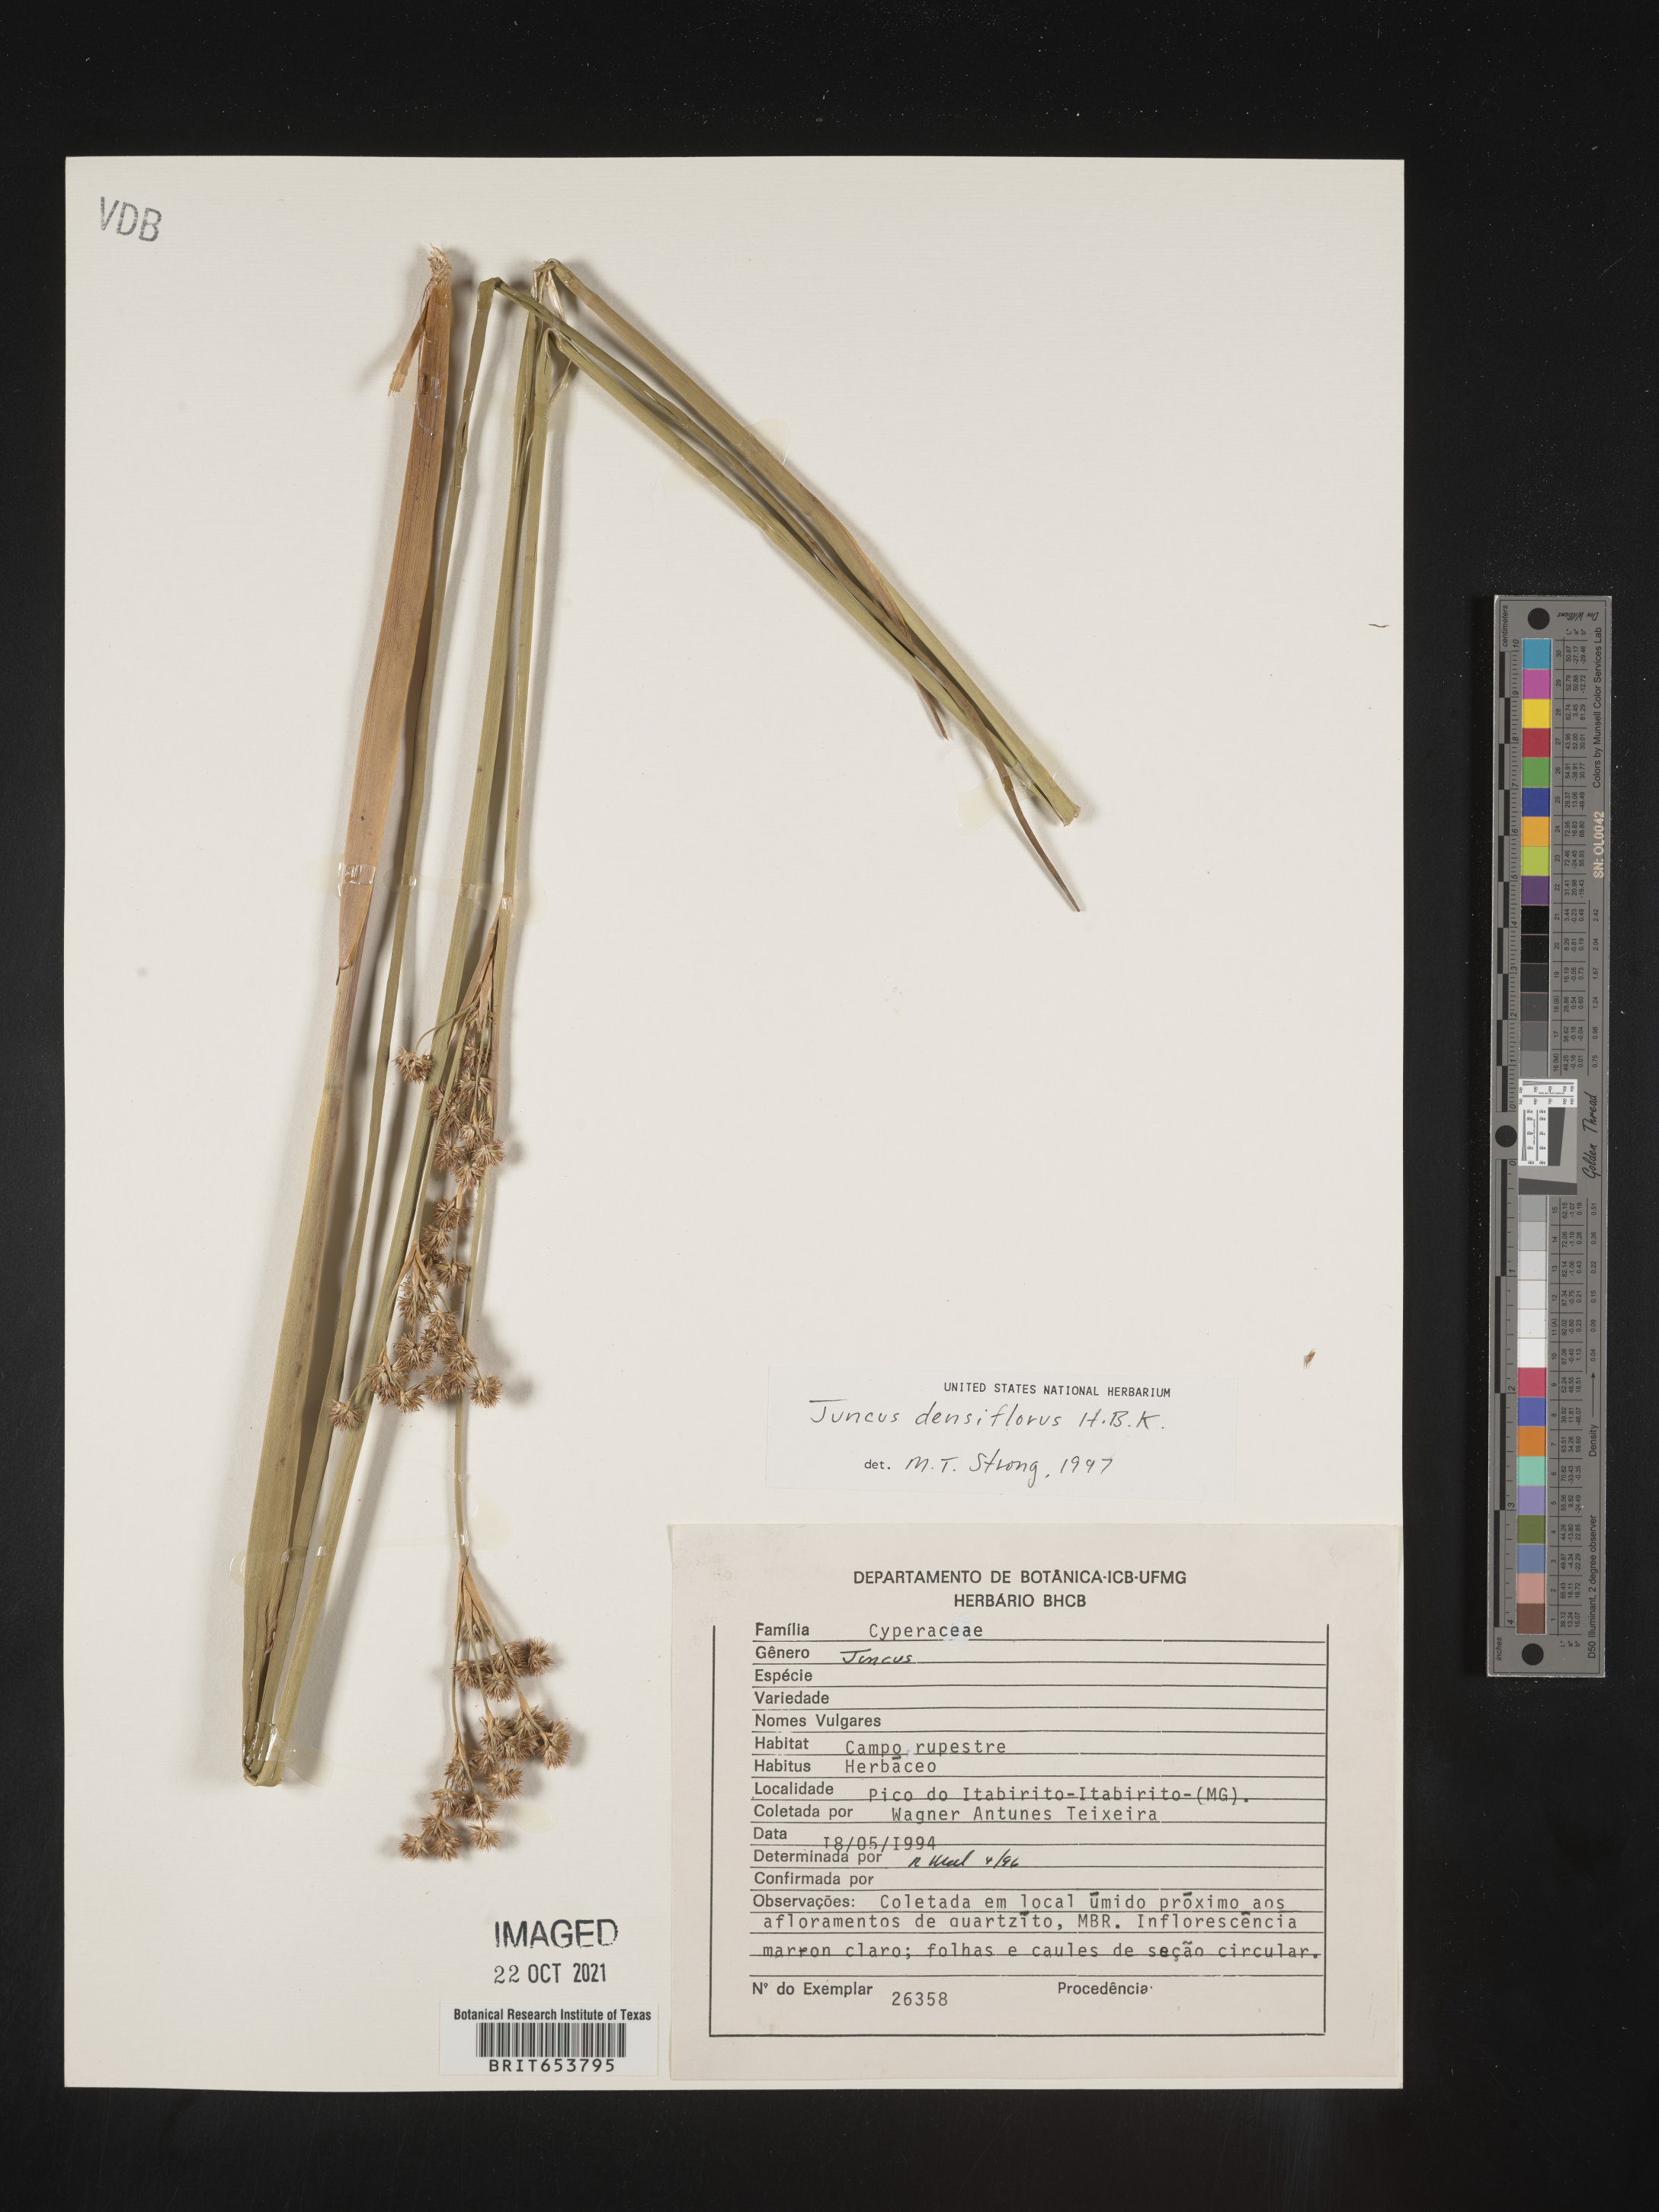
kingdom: Plantae
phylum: Tracheophyta
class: Liliopsida
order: Poales
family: Juncaceae
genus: Juncus
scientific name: Juncus
